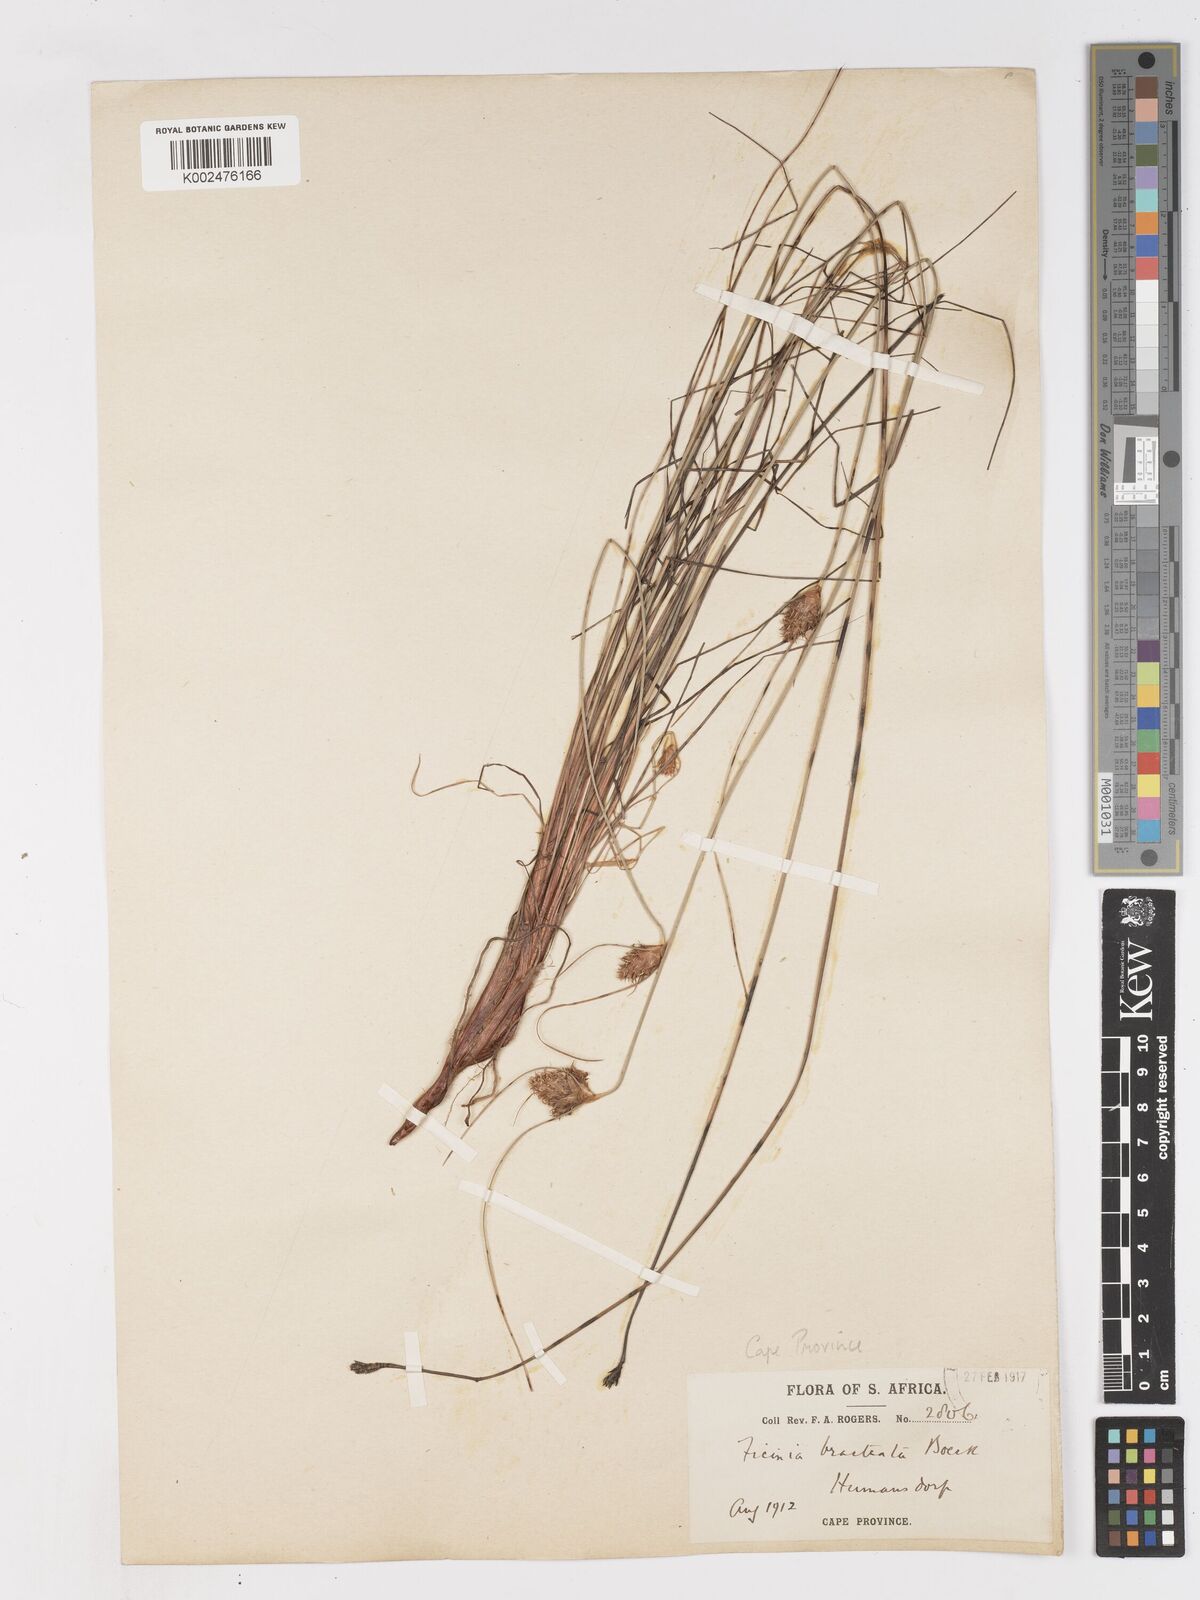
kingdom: Plantae
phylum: Tracheophyta
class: Liliopsida
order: Poales
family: Cyperaceae
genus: Ficinia
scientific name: Ficinia nigrescens
